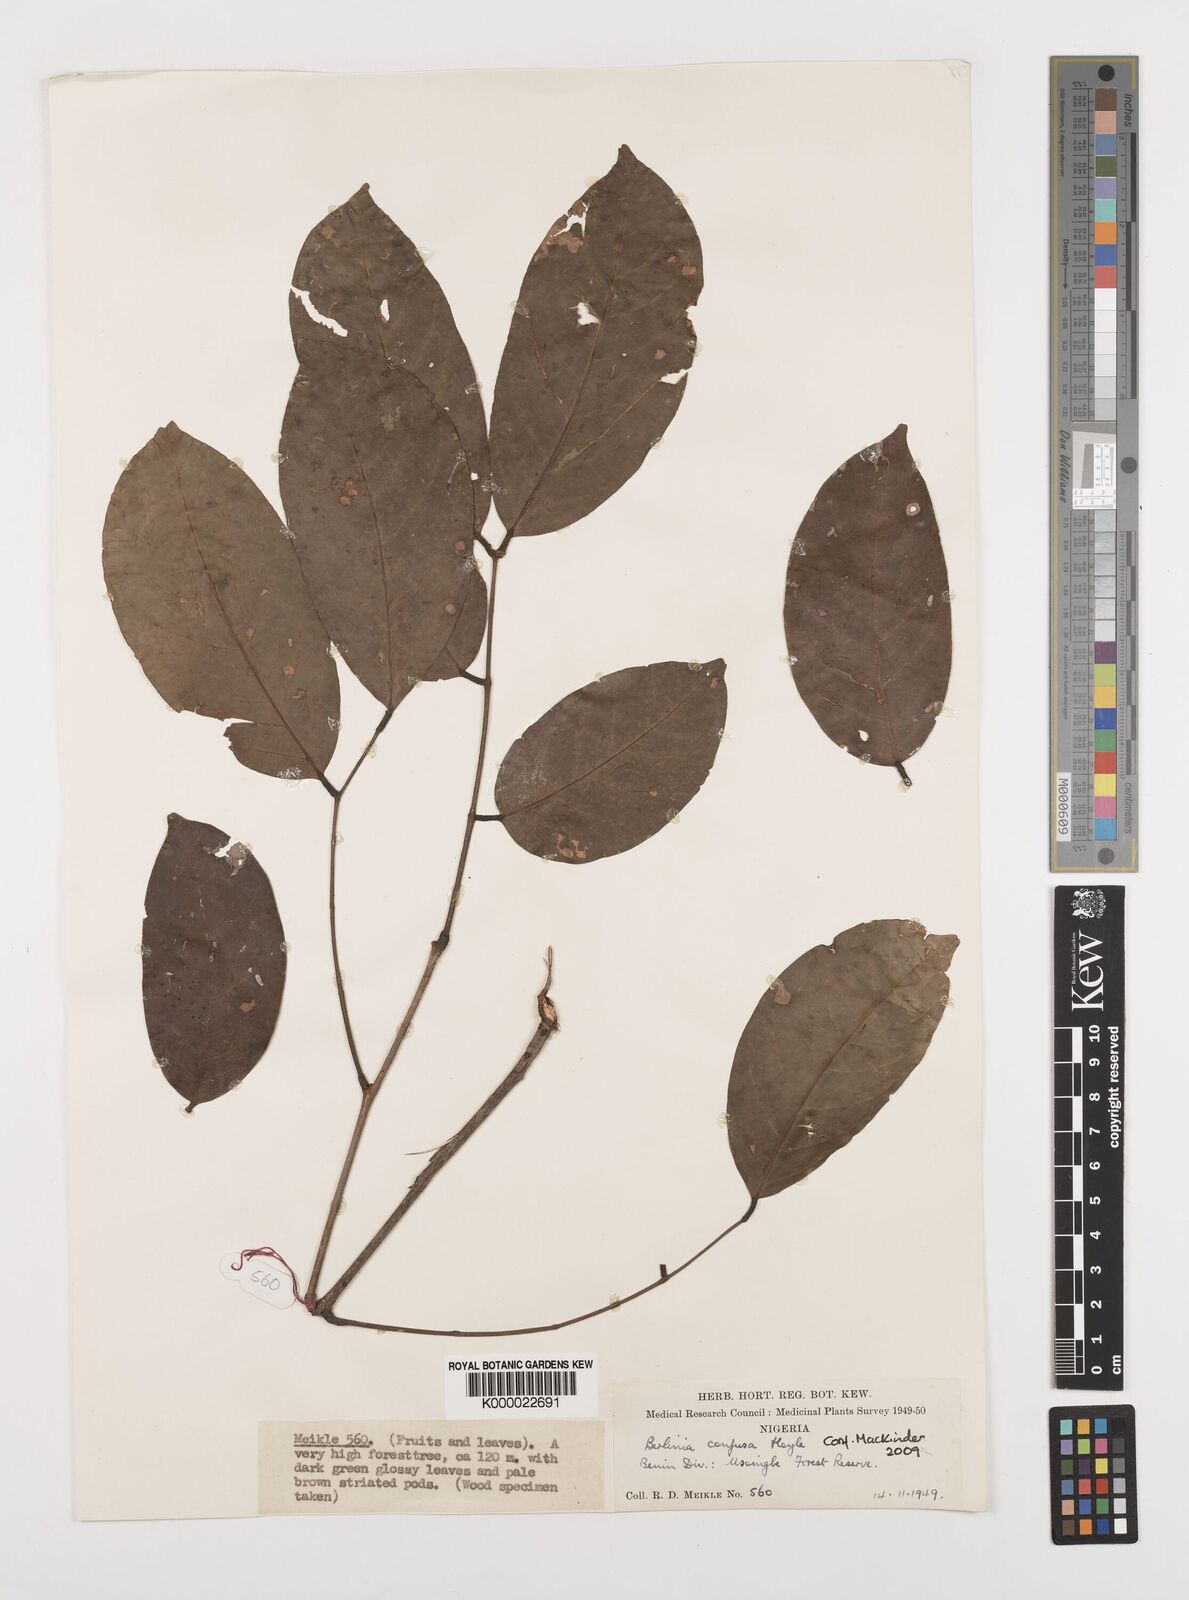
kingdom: Plantae
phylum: Tracheophyta
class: Magnoliopsida
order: Fabales
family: Fabaceae
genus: Berlinia
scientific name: Berlinia confusa
